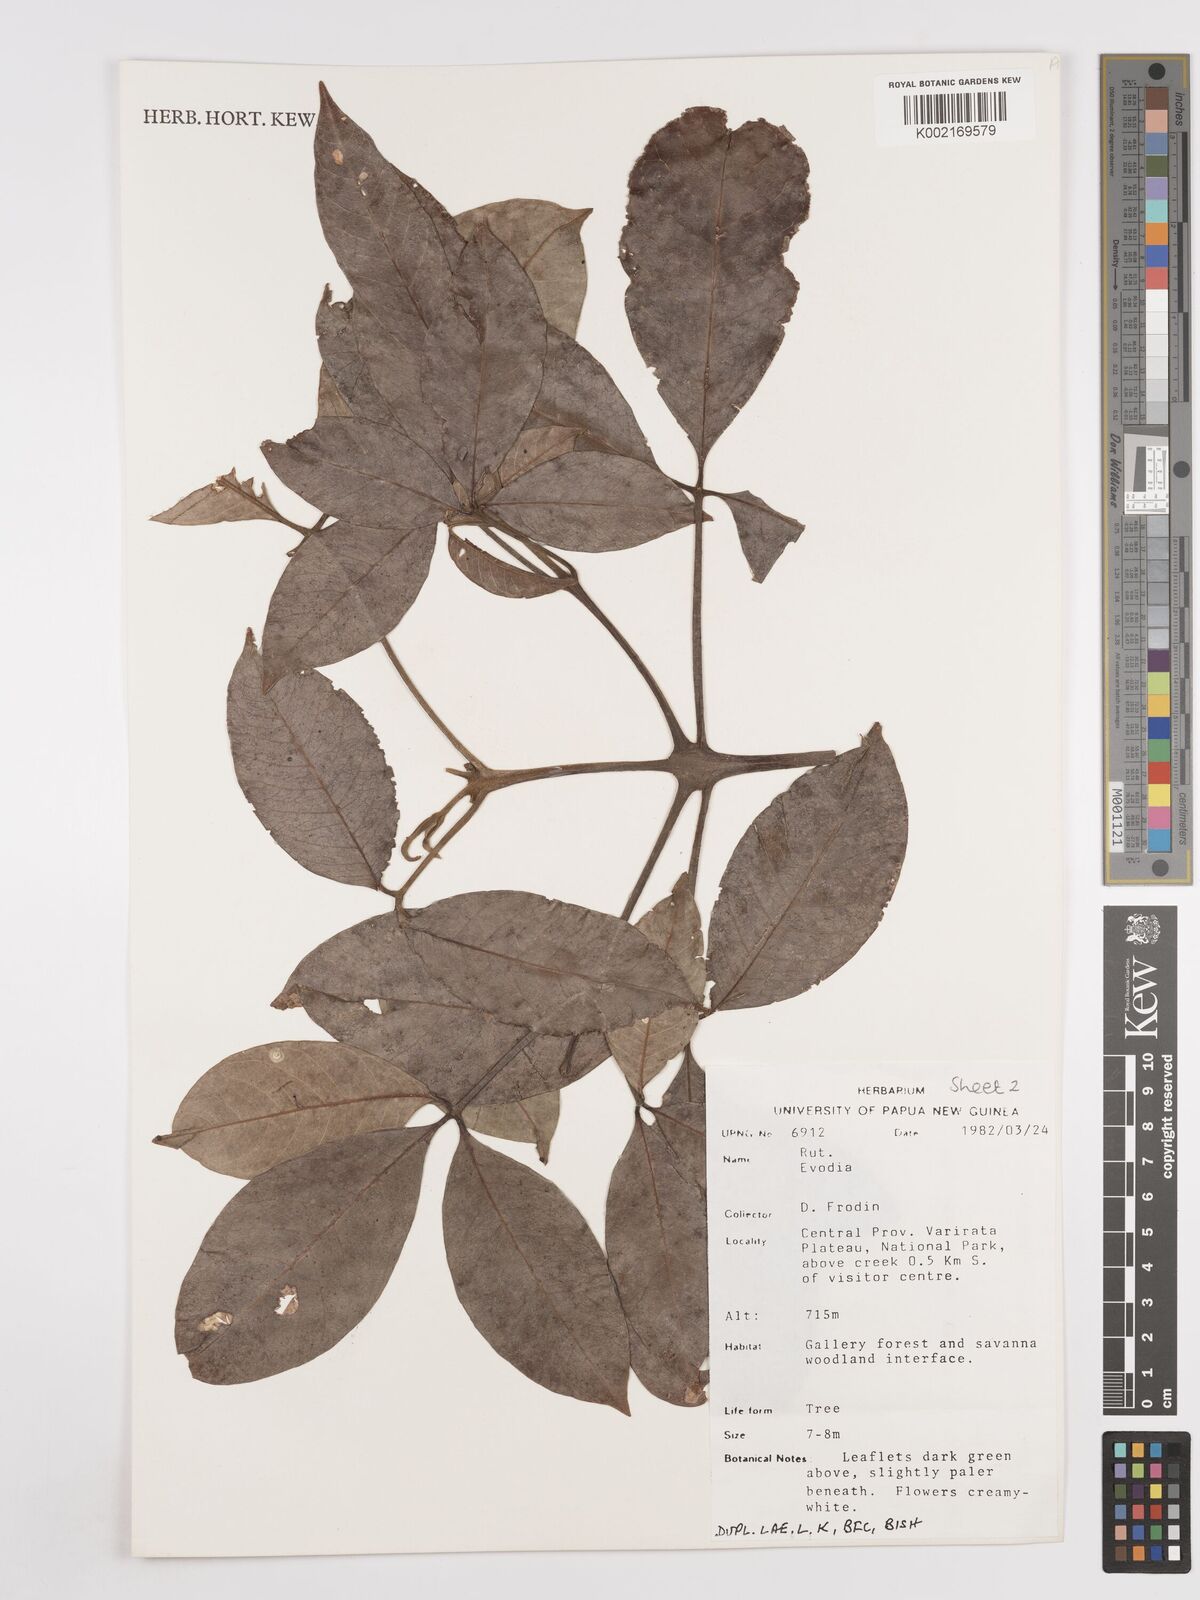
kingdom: Plantae
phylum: Tracheophyta
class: Magnoliopsida
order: Sapindales
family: Rutaceae
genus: Euodia
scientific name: Euodia
